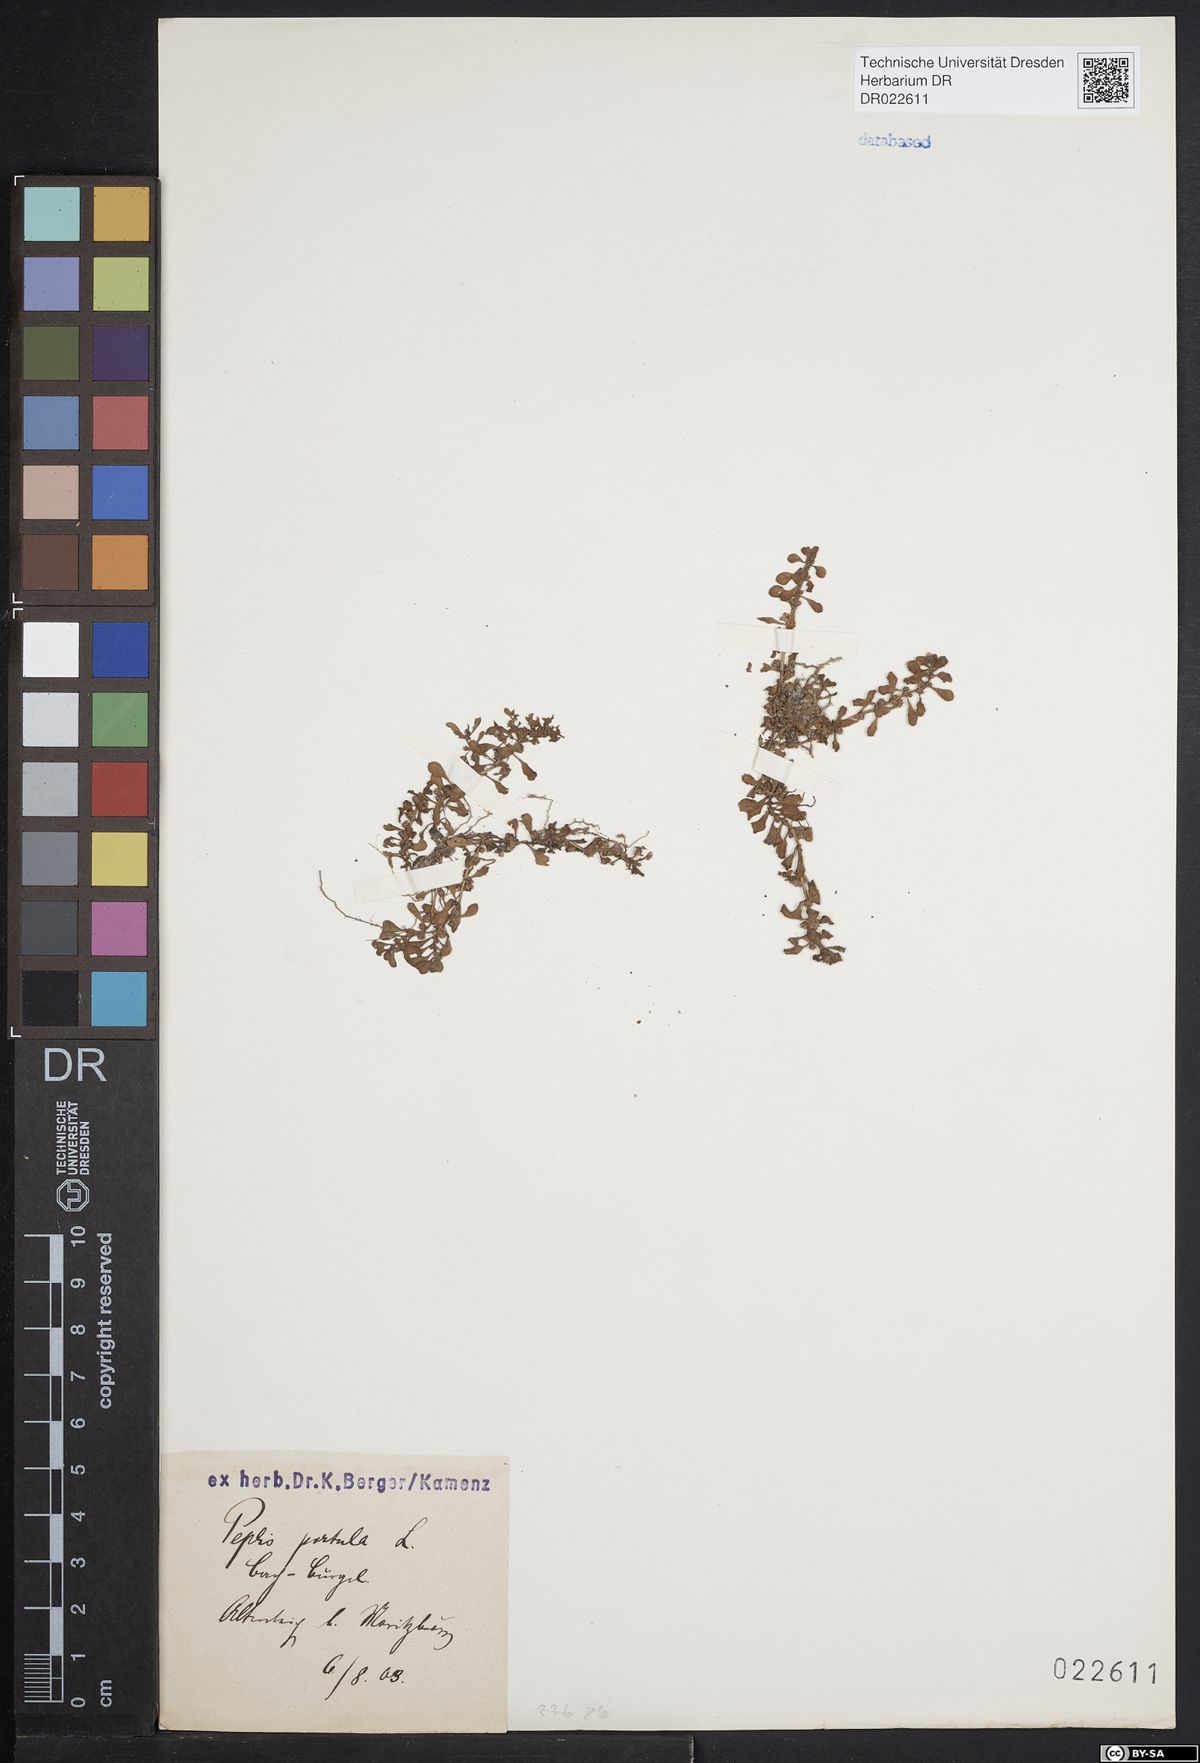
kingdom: Plantae
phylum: Tracheophyta
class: Magnoliopsida
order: Myrtales
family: Lythraceae
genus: Lythrum
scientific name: Lythrum portula
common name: Water purslane
